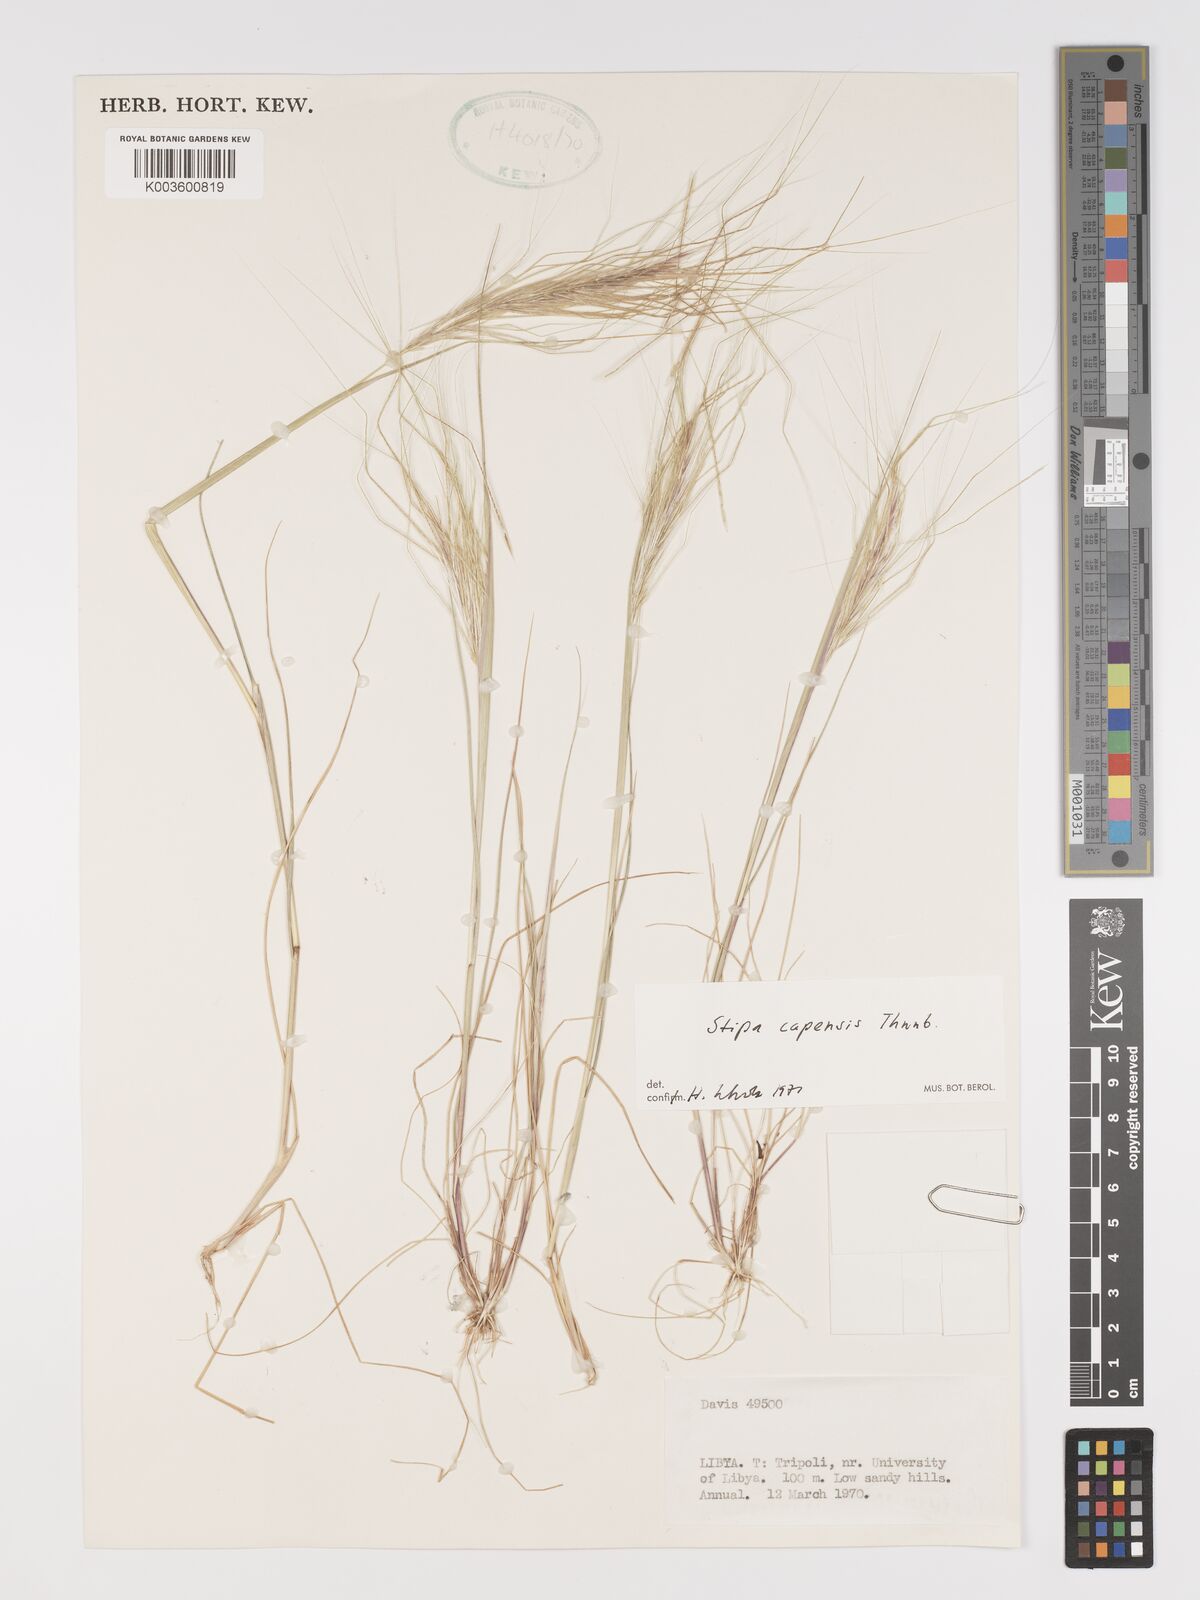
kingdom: Plantae
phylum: Tracheophyta
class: Liliopsida
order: Poales
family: Poaceae
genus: Stipellula
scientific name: Stipellula capensis
